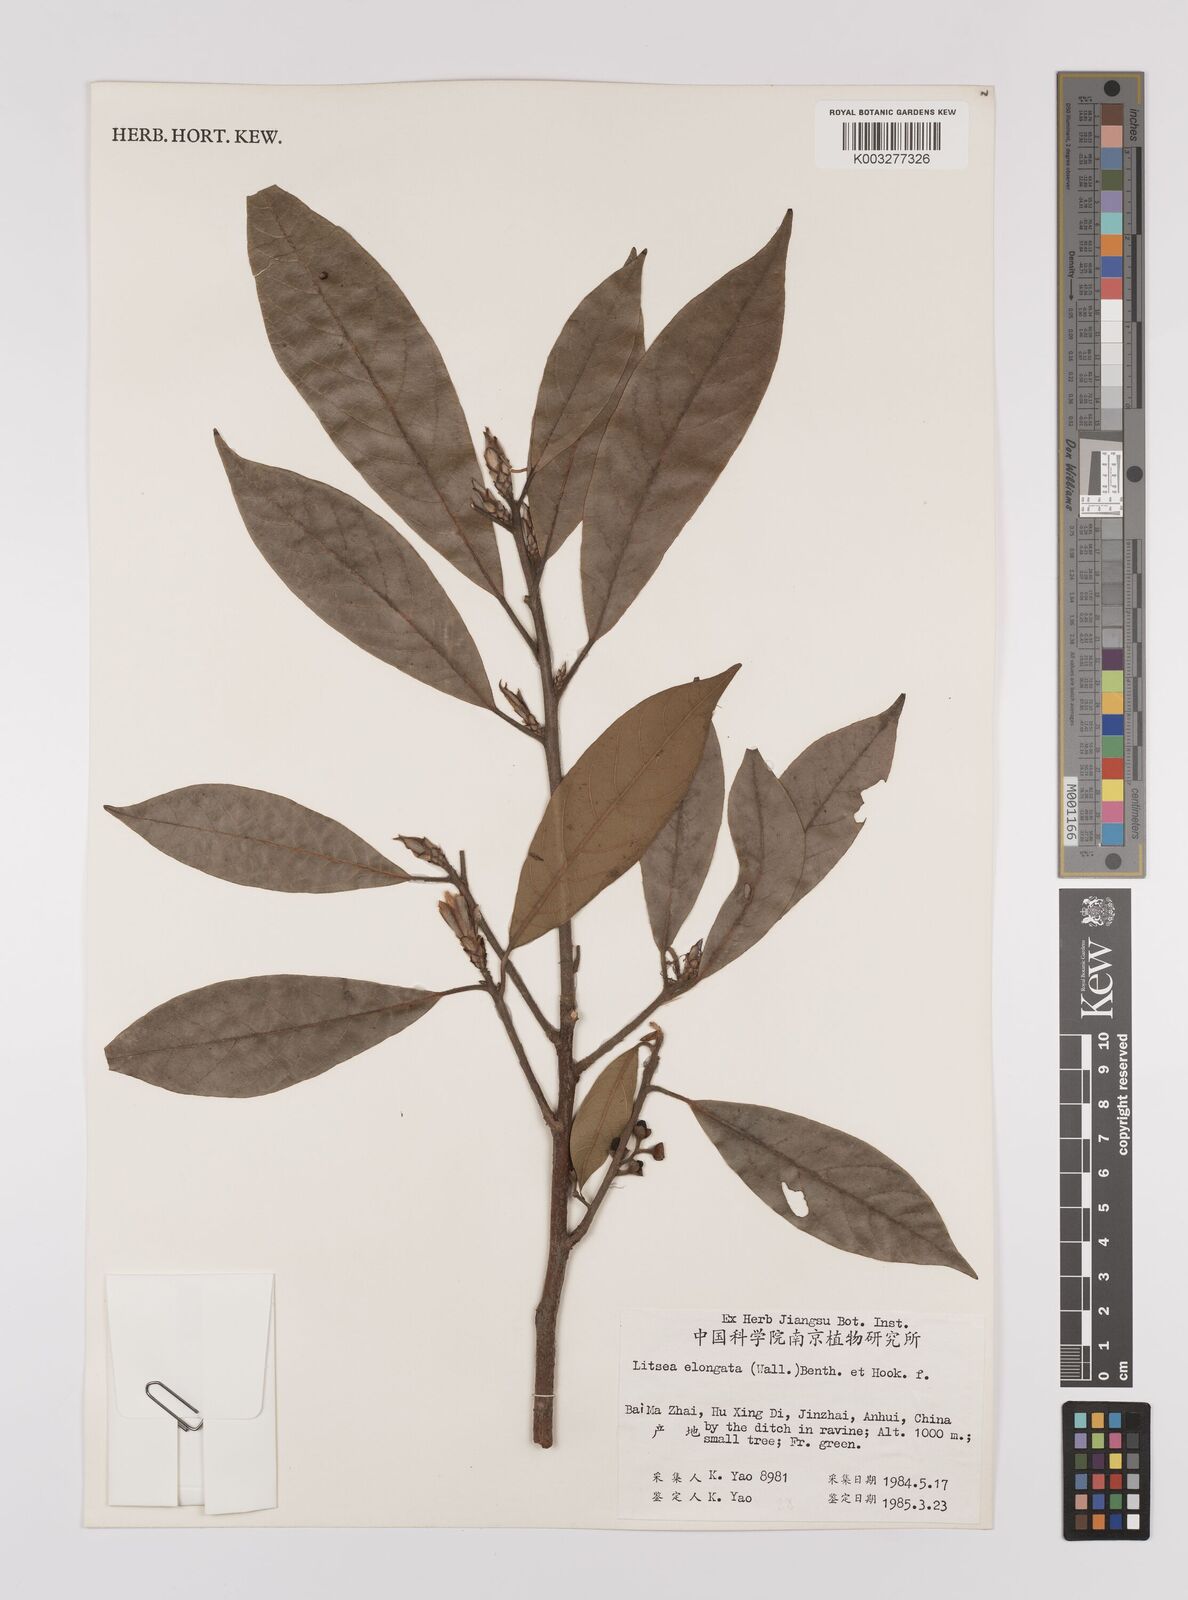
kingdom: Plantae
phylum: Tracheophyta
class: Magnoliopsida
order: Laurales
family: Lauraceae
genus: Litsea
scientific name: Litsea elongata
